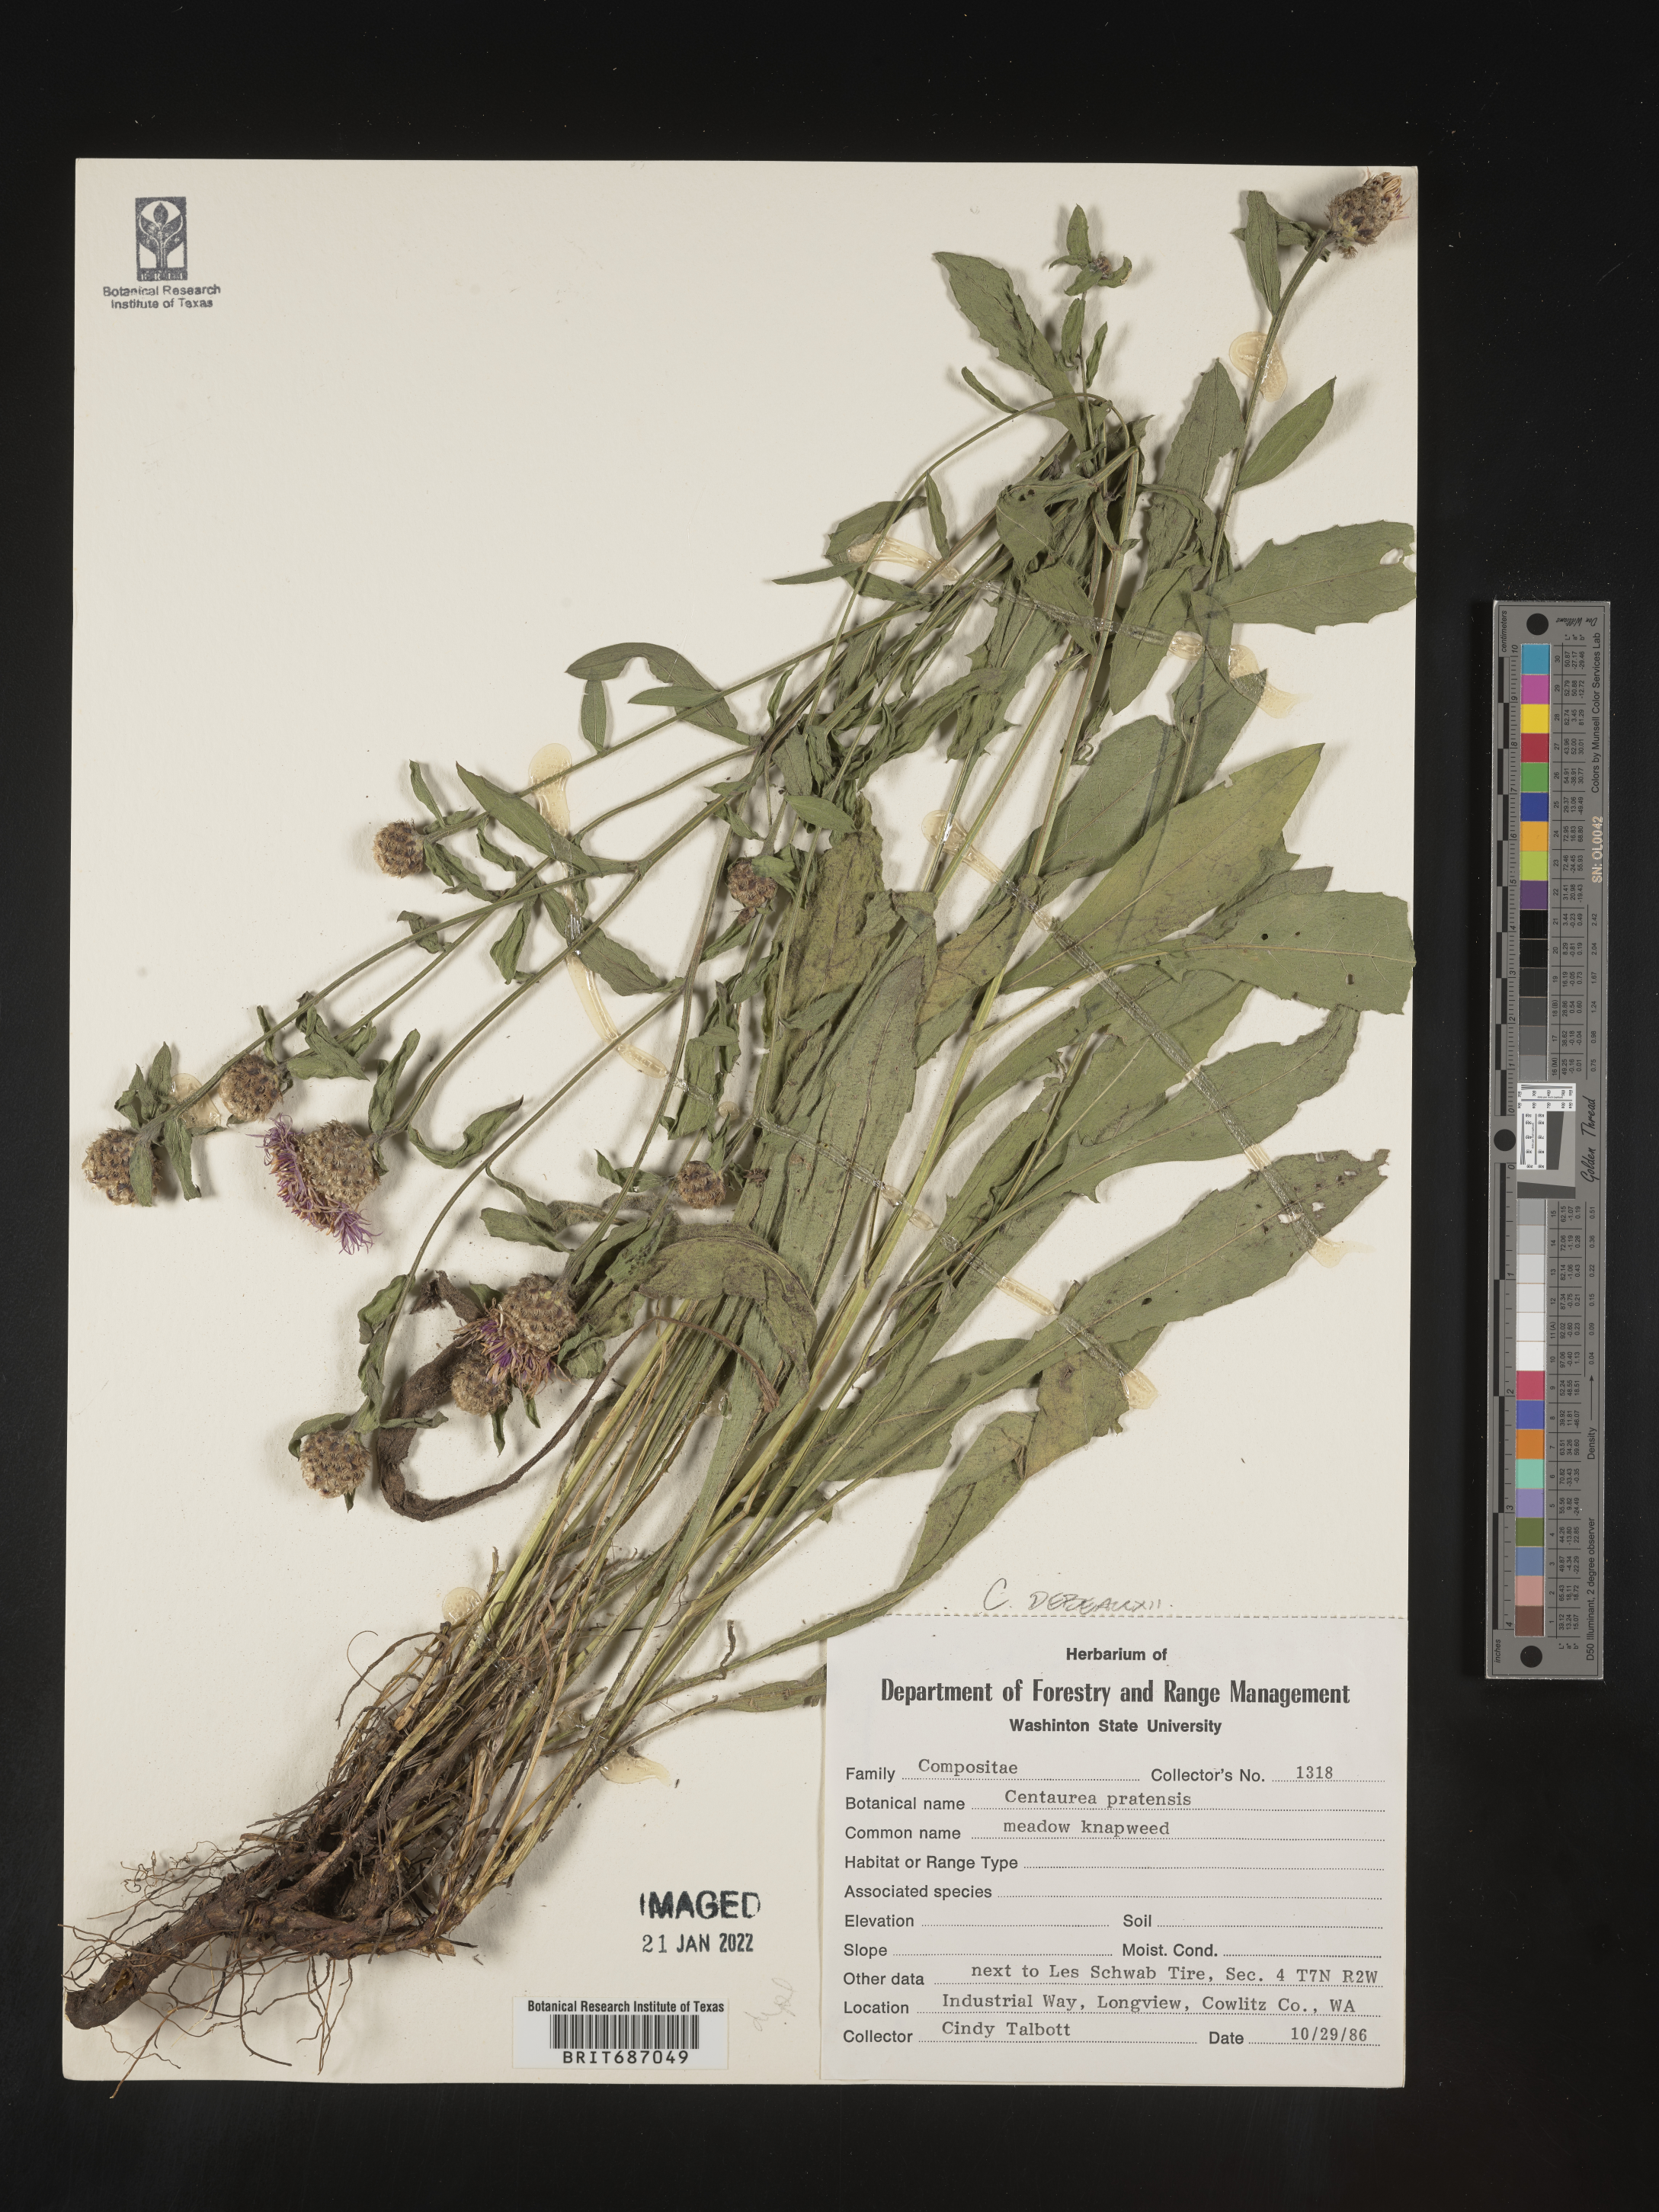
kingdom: Plantae
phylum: Tracheophyta
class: Magnoliopsida
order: Asterales
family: Asteraceae
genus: Centaurea
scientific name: Centaurea debeauxii
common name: Slender knapweed
